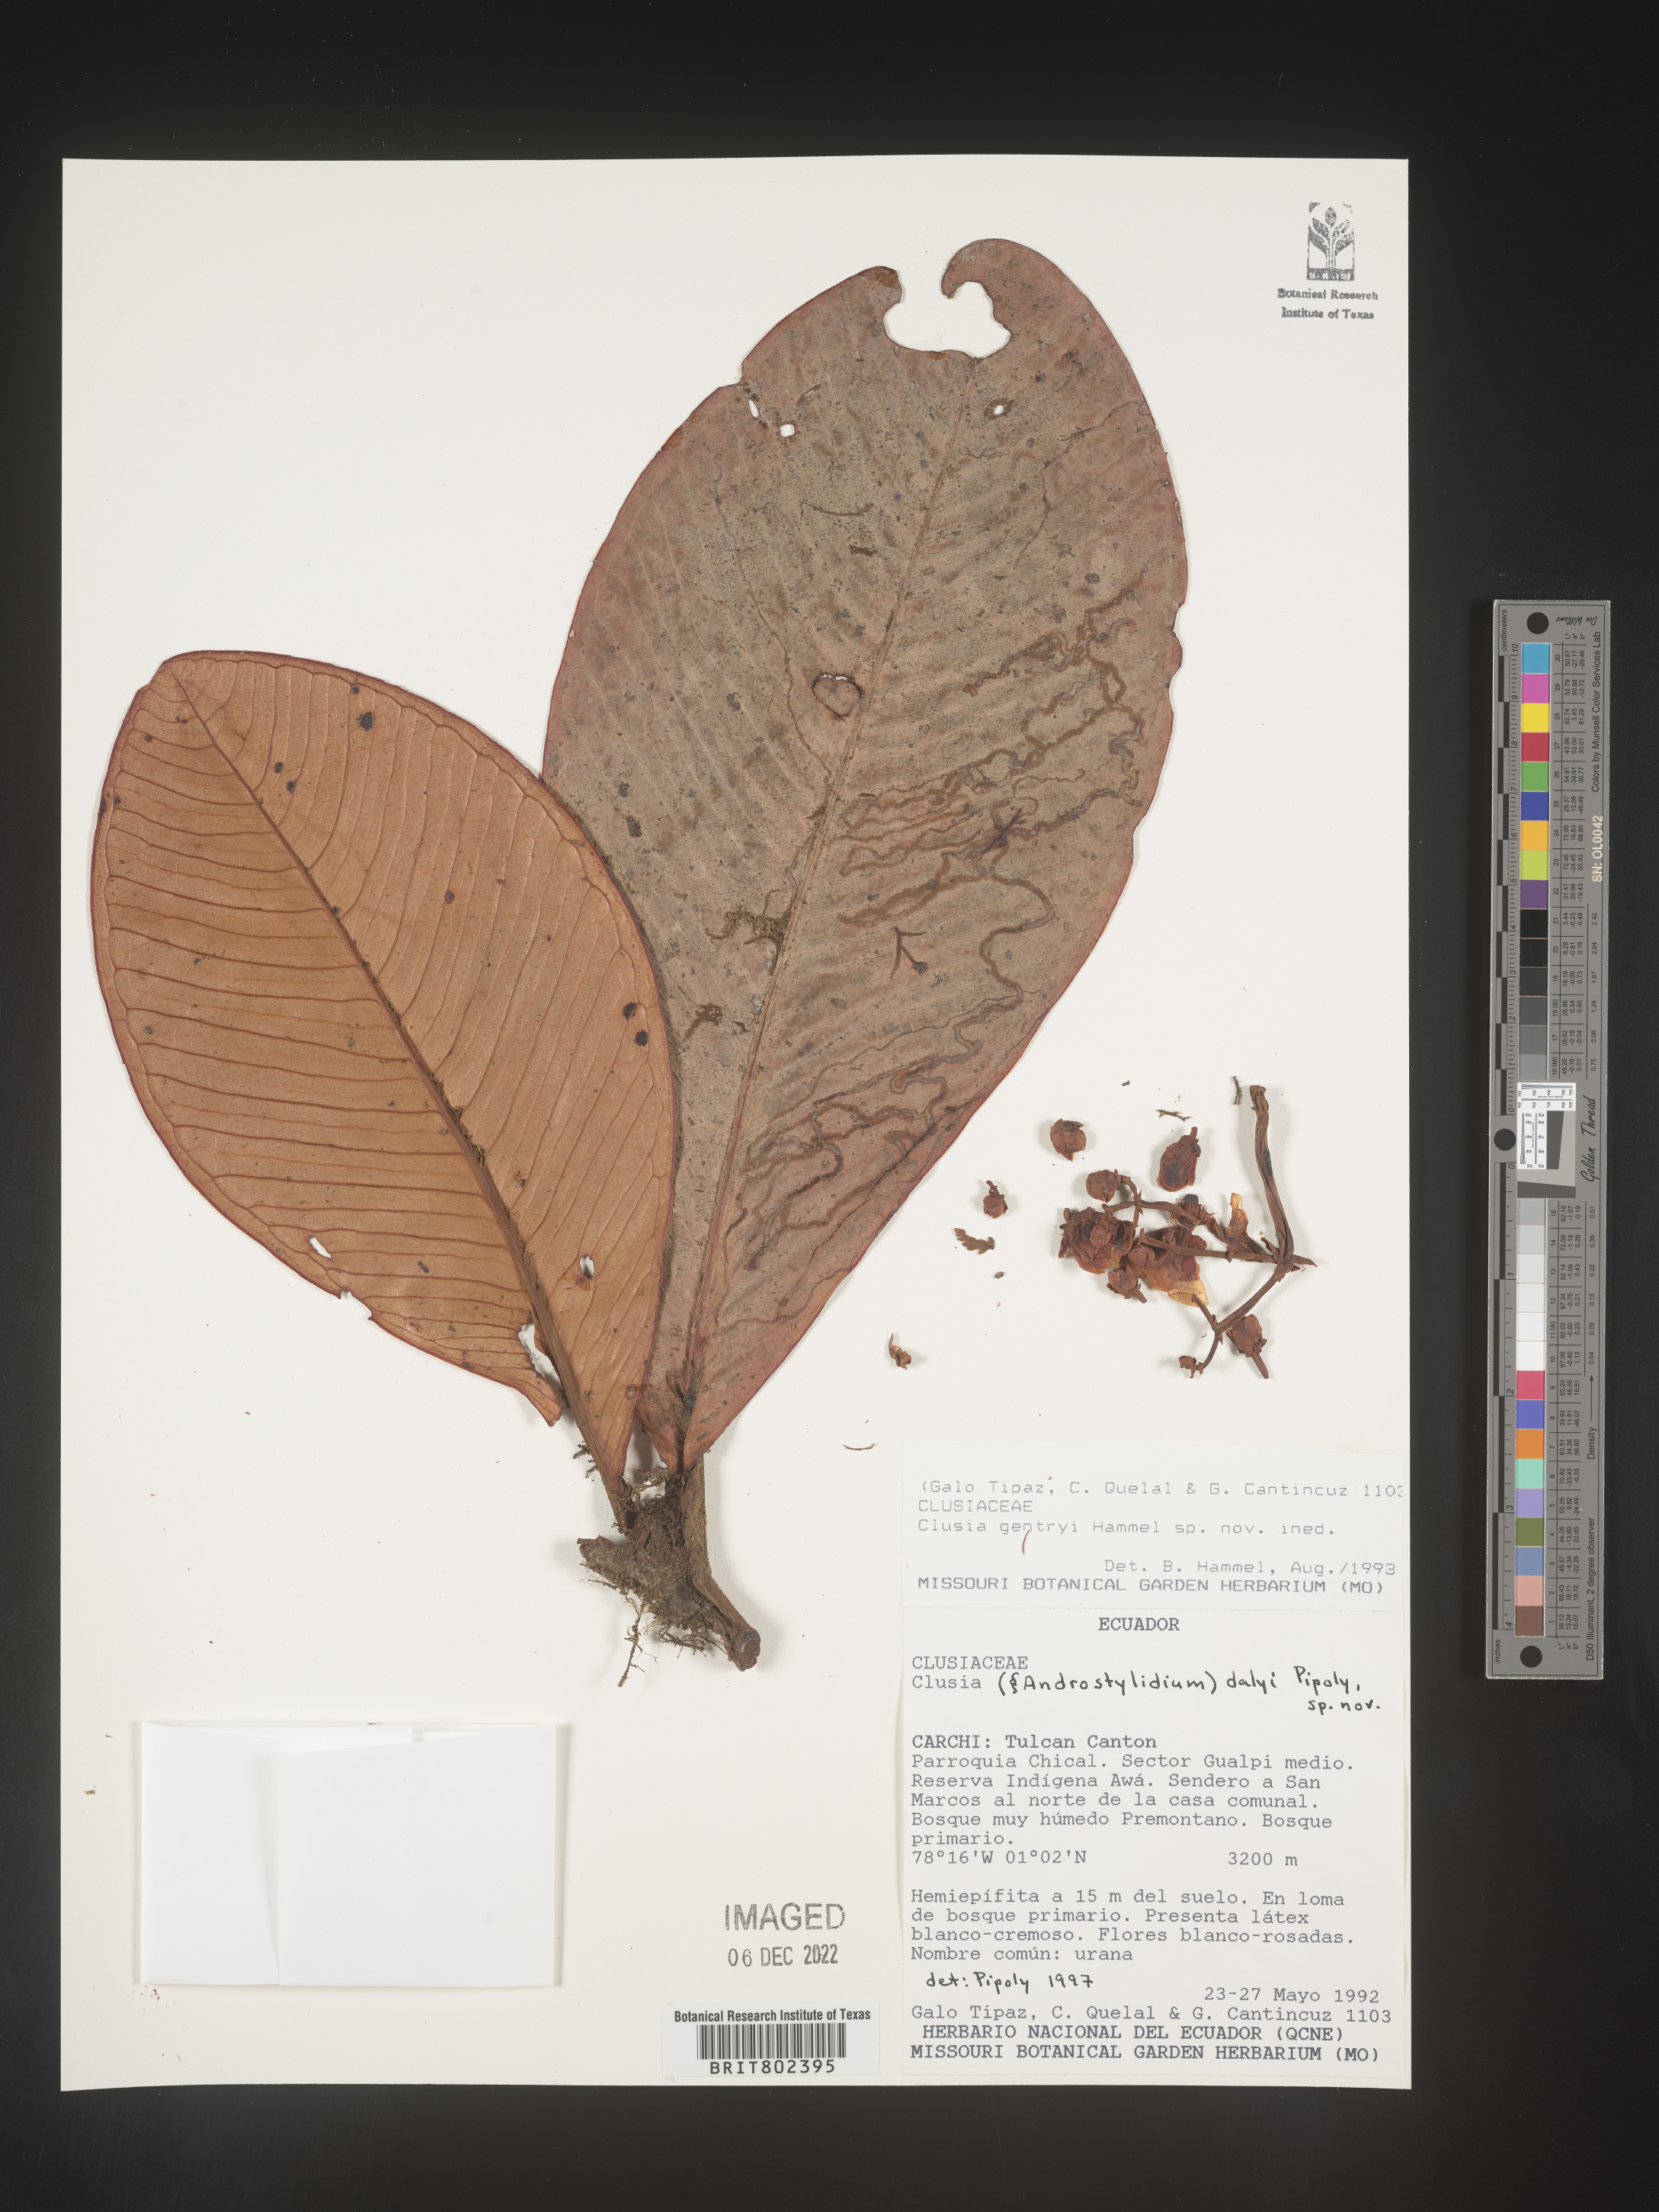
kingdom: Plantae
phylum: Tracheophyta
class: Magnoliopsida
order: Malpighiales
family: Clusiaceae
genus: Clusia
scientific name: Clusia
